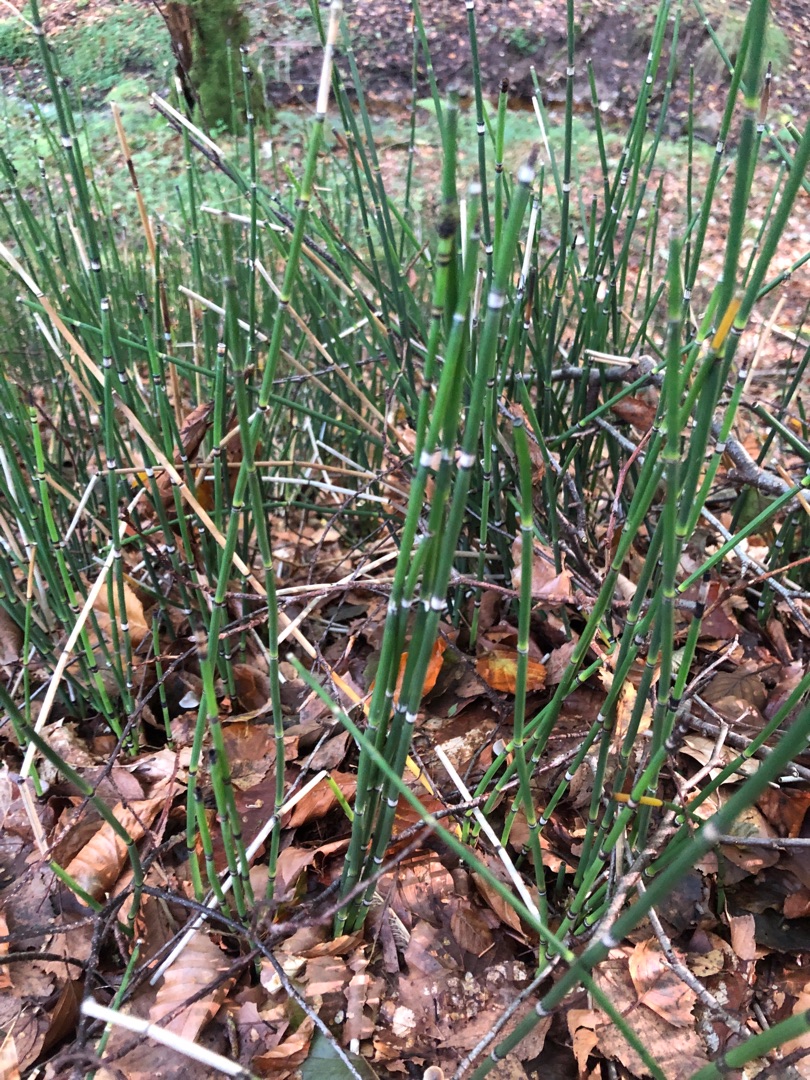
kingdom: Plantae
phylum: Tracheophyta
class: Polypodiopsida
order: Equisetales
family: Equisetaceae
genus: Equisetum
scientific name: Equisetum hyemale
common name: Skavgræs
